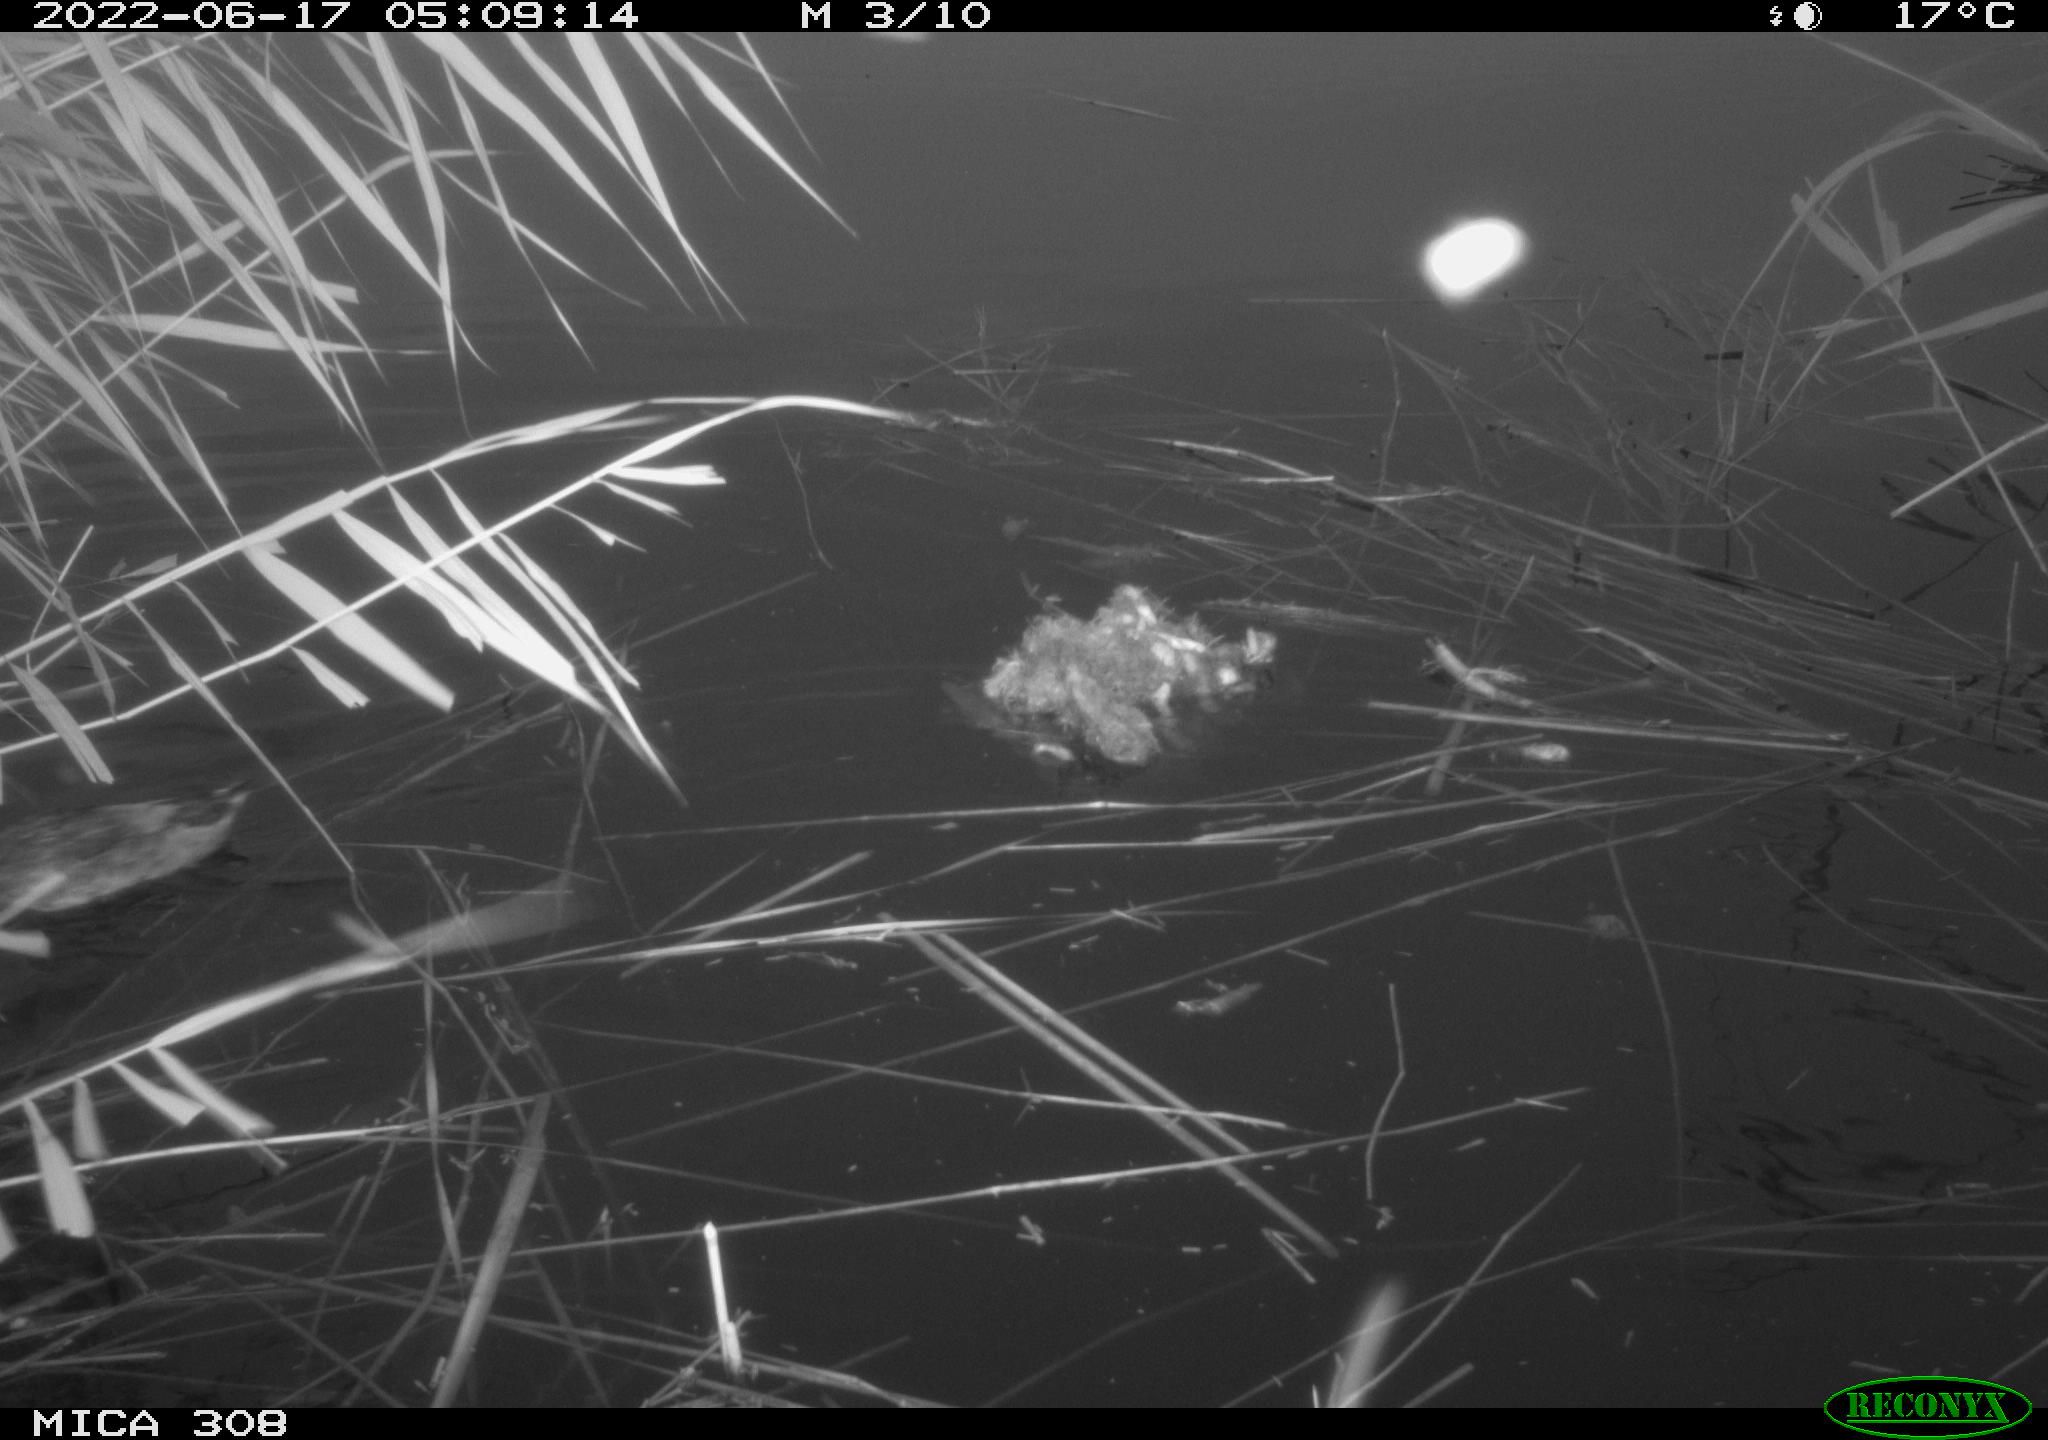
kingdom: Animalia
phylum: Chordata
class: Aves
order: Anseriformes
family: Anatidae
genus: Anas
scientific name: Anas platyrhynchos
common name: Mallard
